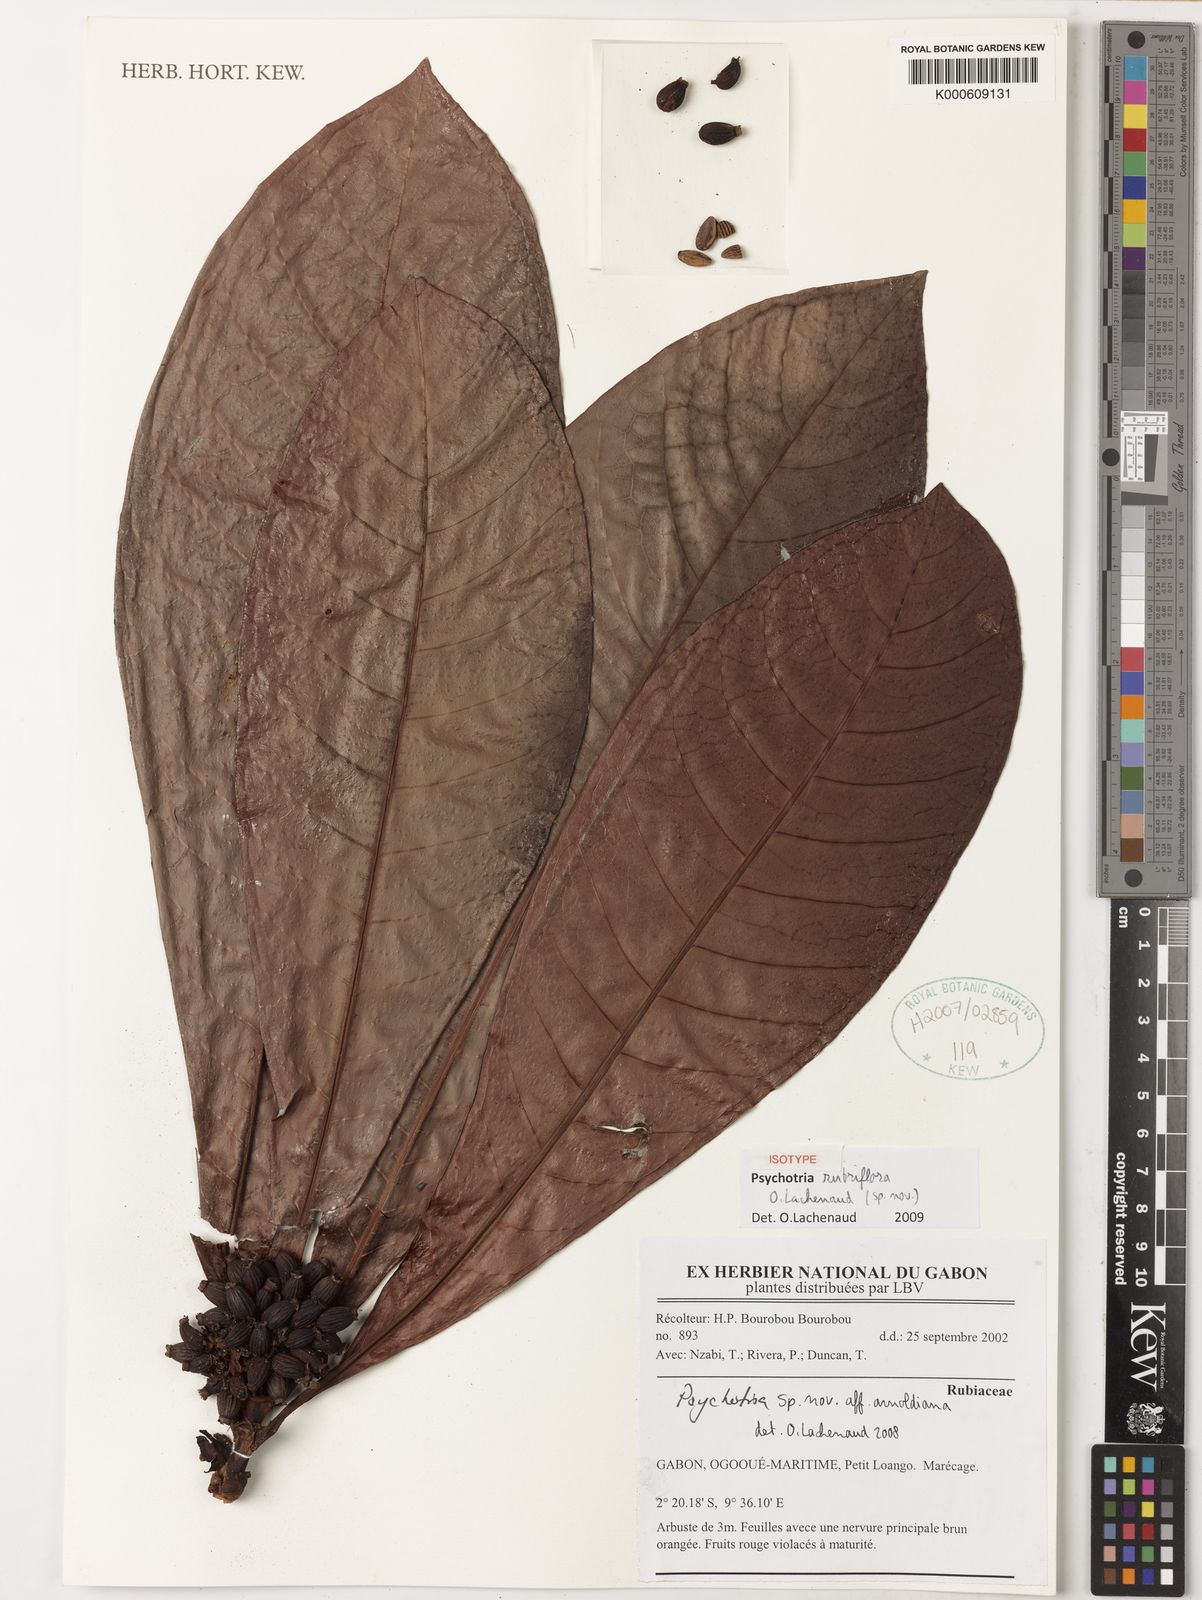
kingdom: Plantae
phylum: Tracheophyta
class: Magnoliopsida
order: Gentianales
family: Rubiaceae
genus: Psychotria
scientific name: Psychotria rubriflora
